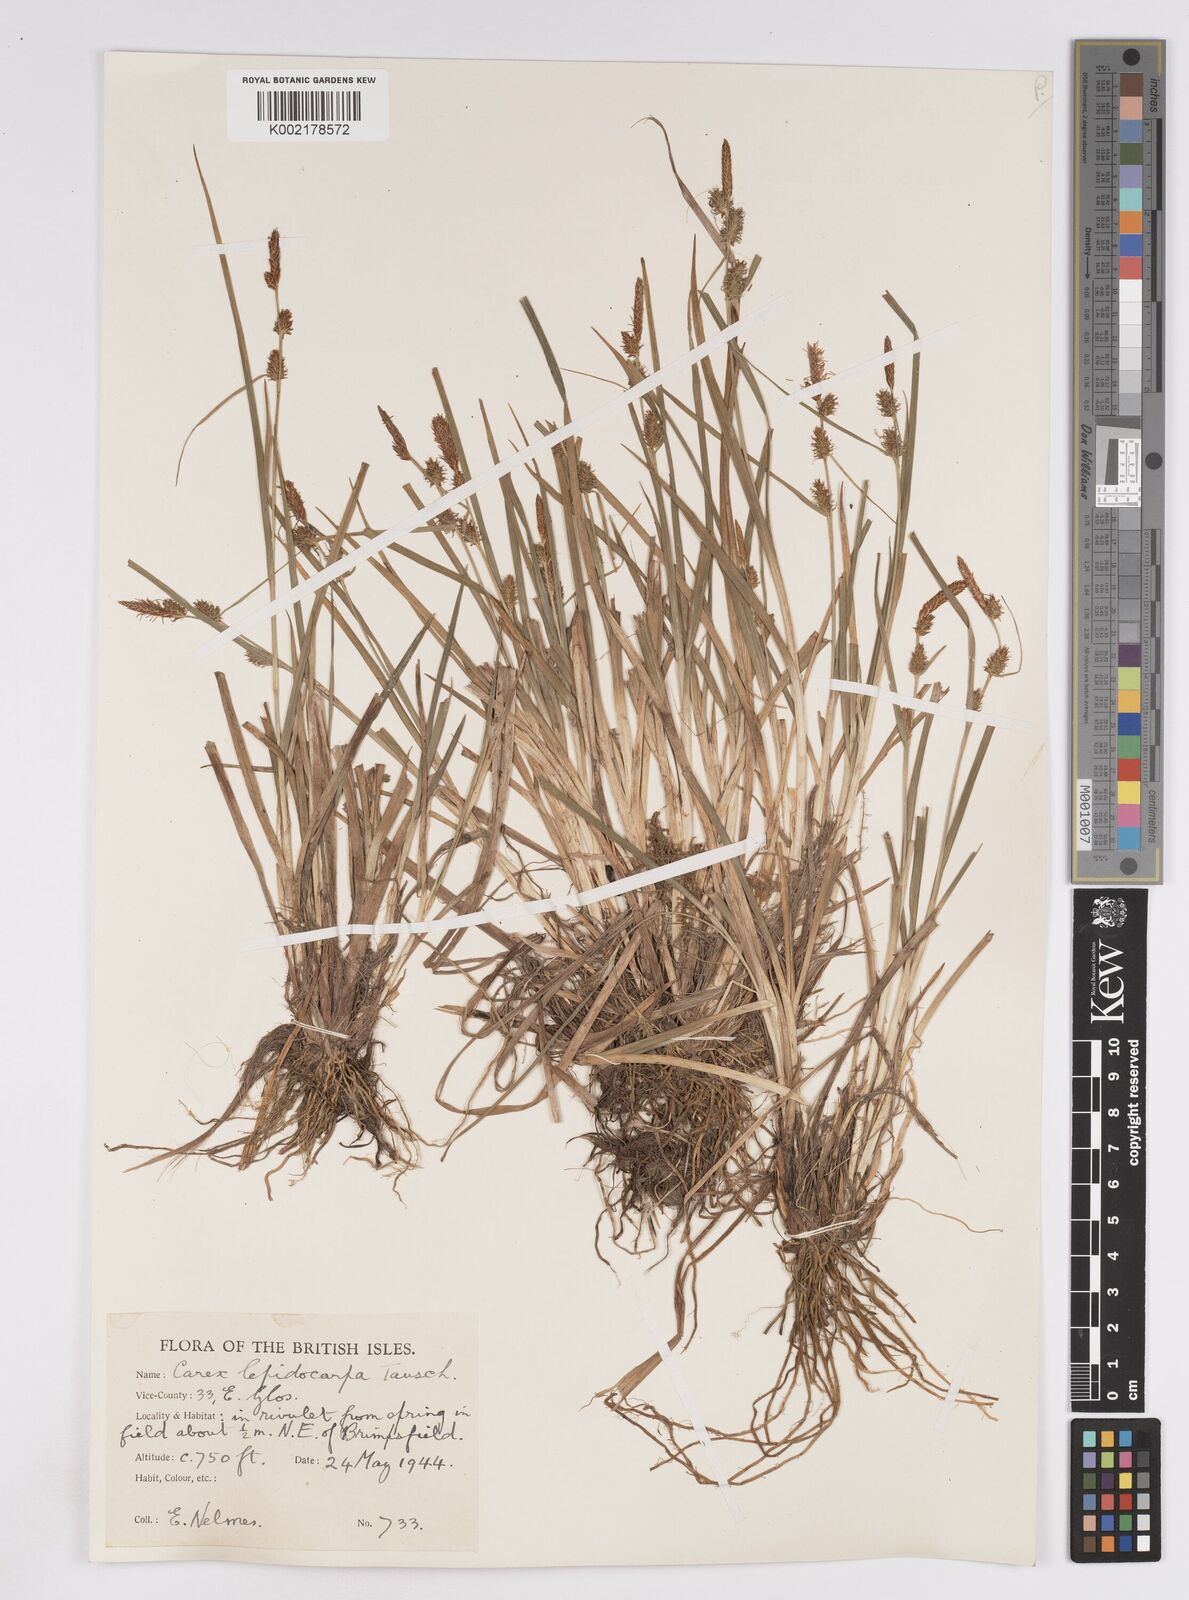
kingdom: Plantae
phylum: Tracheophyta
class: Liliopsida
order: Poales
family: Cyperaceae
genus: Carex
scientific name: Carex lepidocarpa
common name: Long-stalked yellow-sedge
